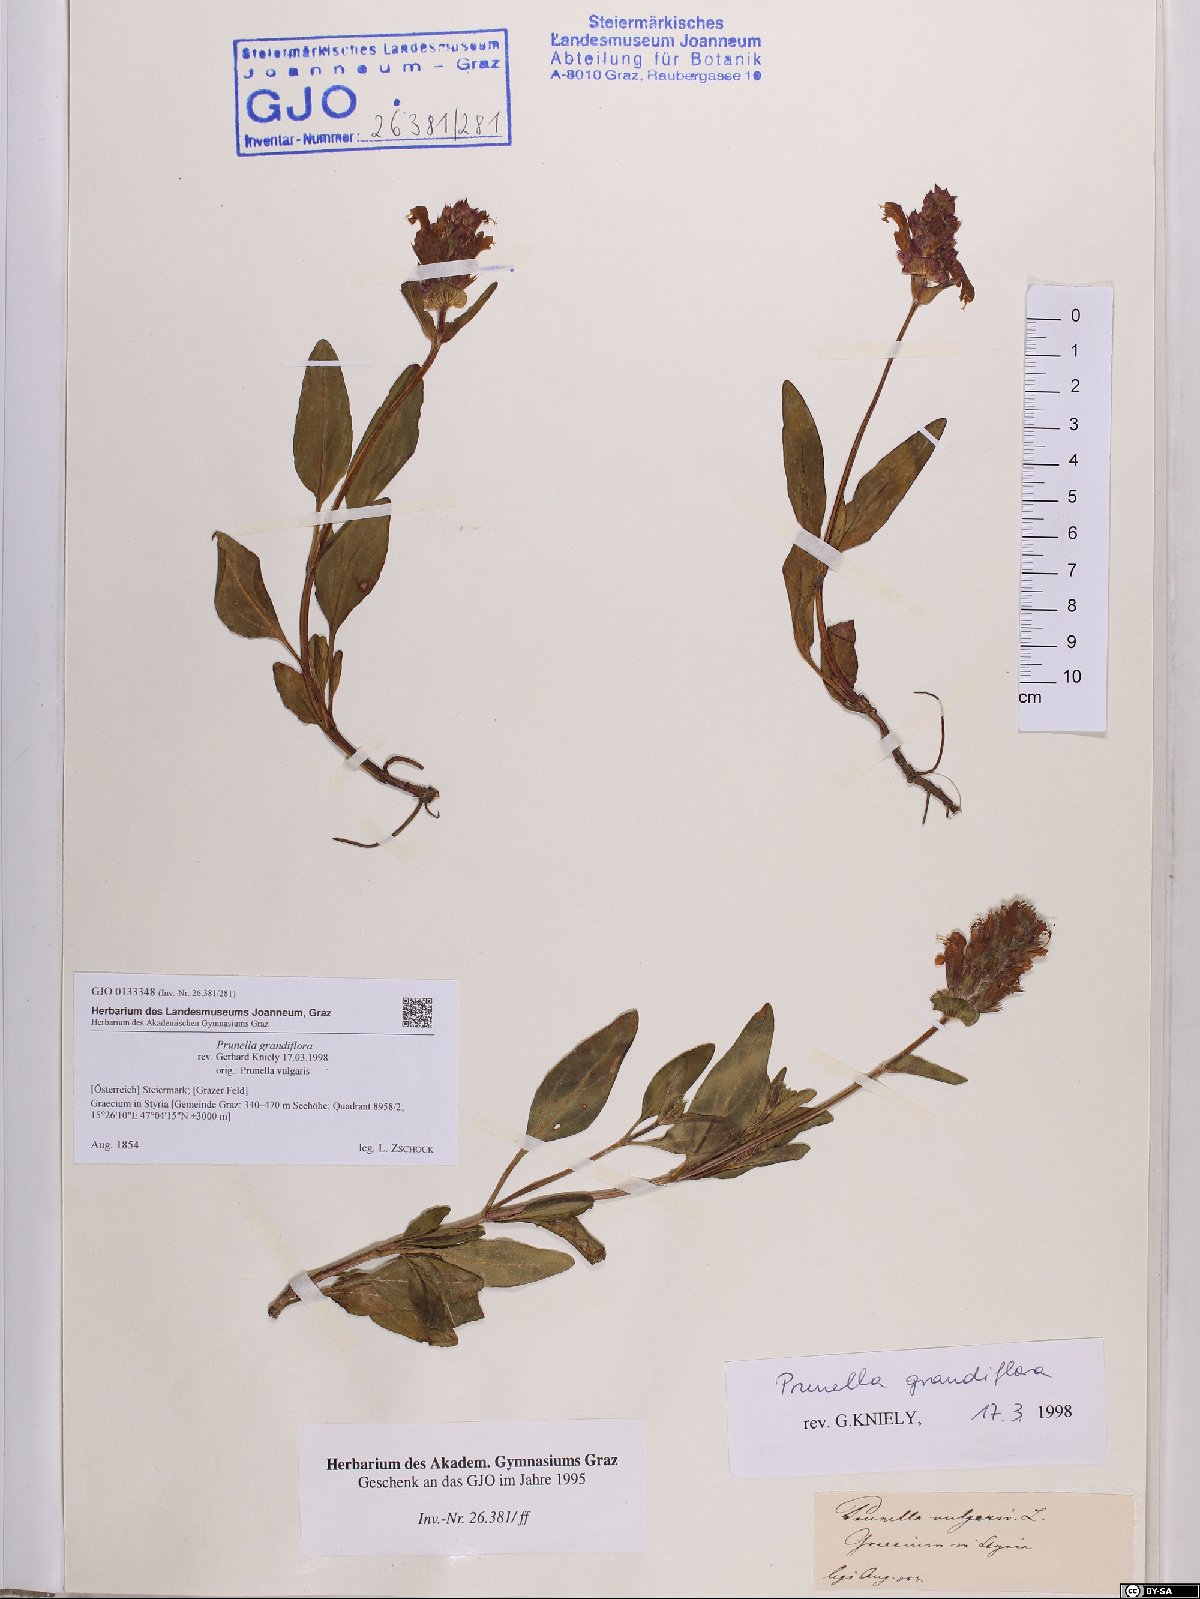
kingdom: Plantae
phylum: Tracheophyta
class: Magnoliopsida
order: Lamiales
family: Lamiaceae
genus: Prunella
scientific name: Prunella grandiflora
